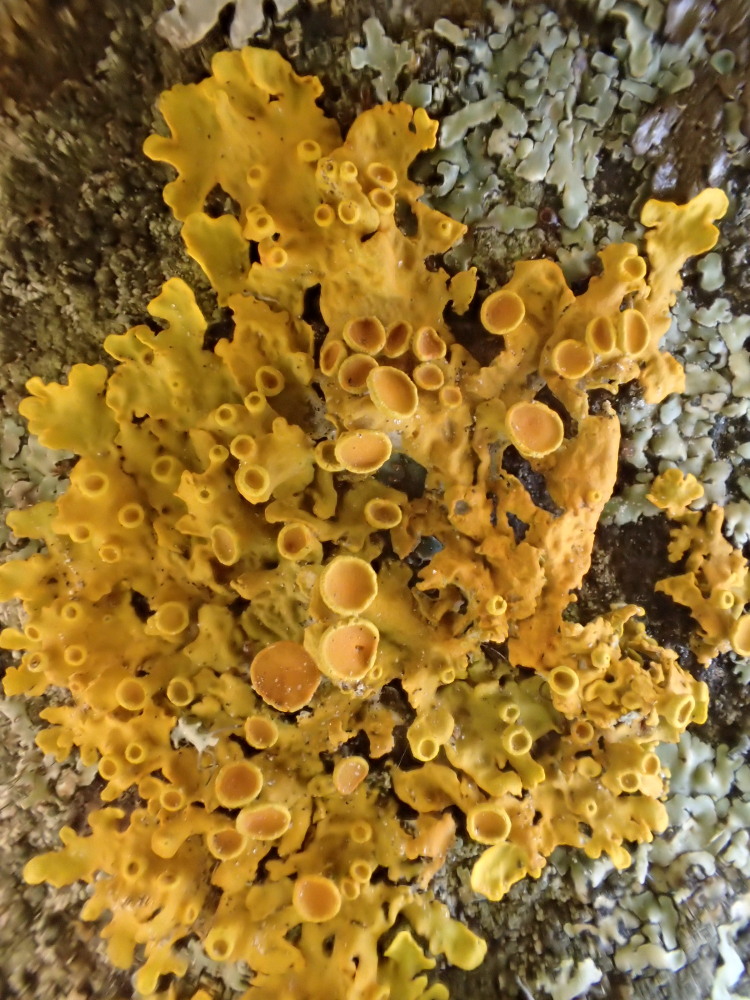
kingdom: Fungi
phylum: Ascomycota
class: Lecanoromycetes
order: Teloschistales
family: Teloschistaceae
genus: Xanthoria
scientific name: Xanthoria parietina
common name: almindelig væggelav
